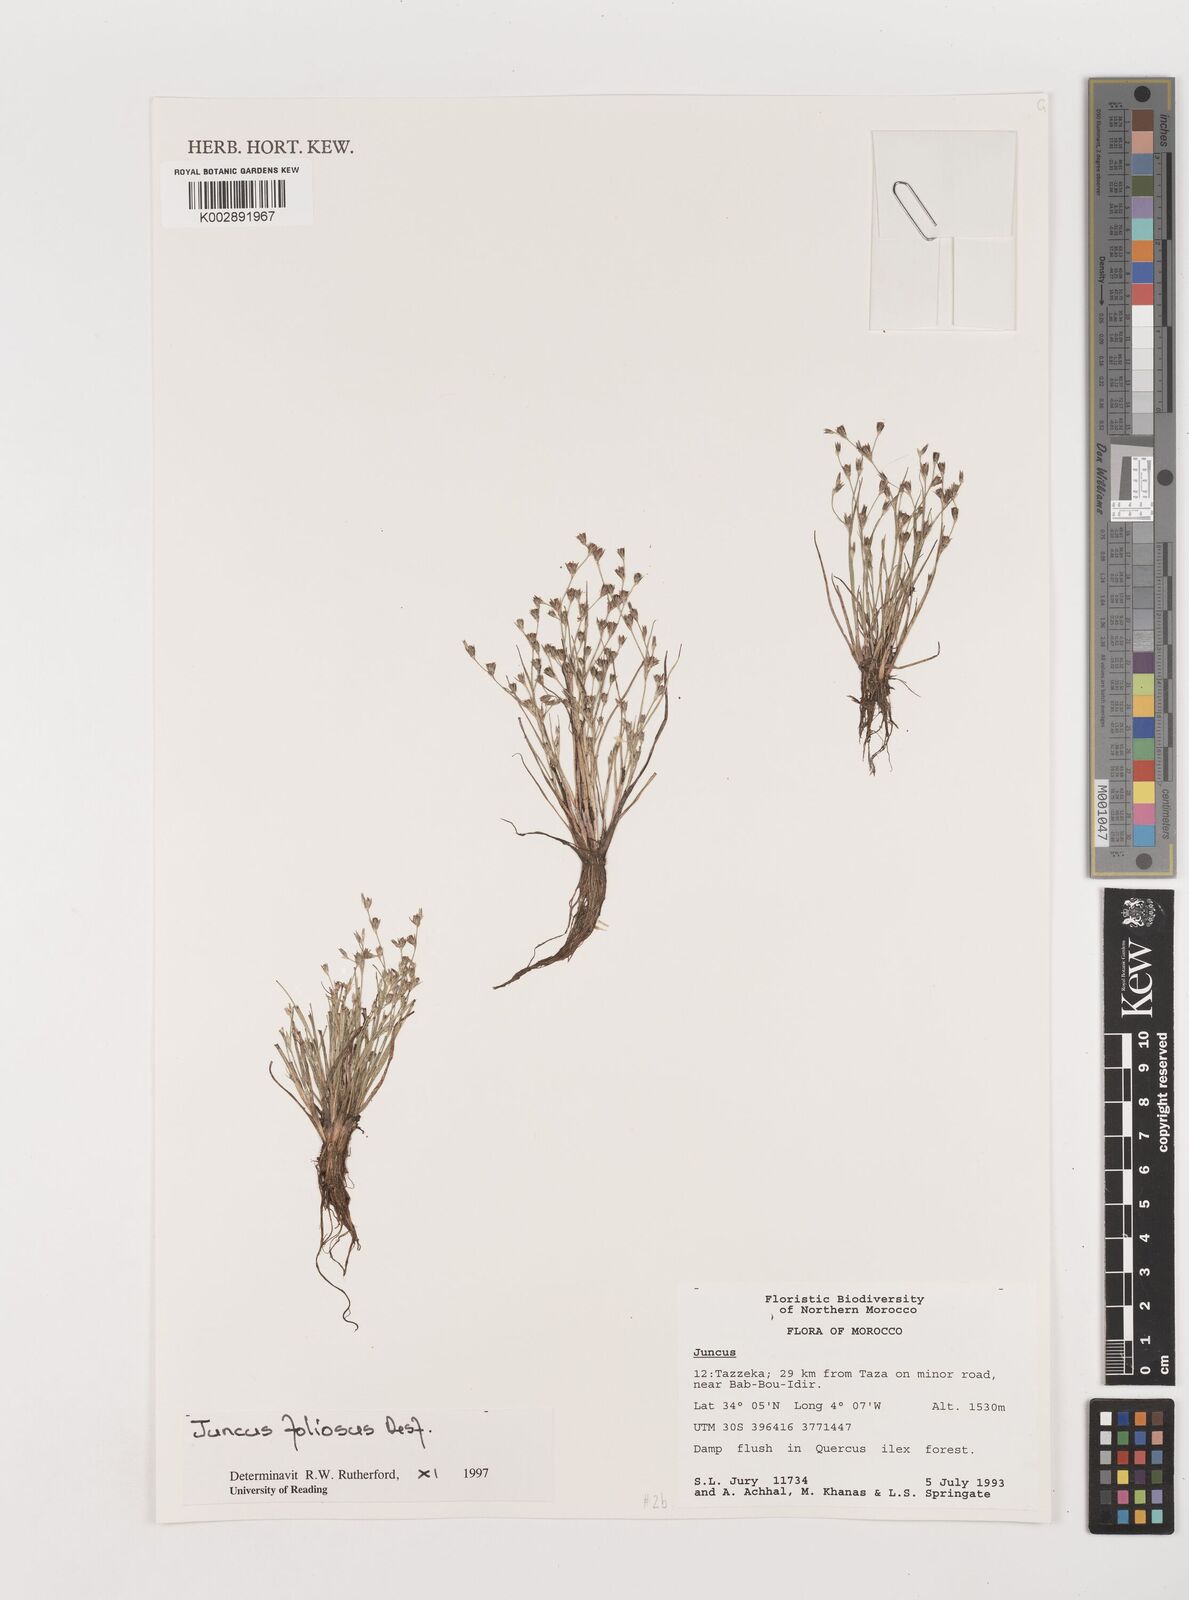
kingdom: Plantae
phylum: Tracheophyta
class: Liliopsida
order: Poales
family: Juncaceae
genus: Juncus
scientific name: Juncus acutiflorus
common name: Sharp-flowered rush
